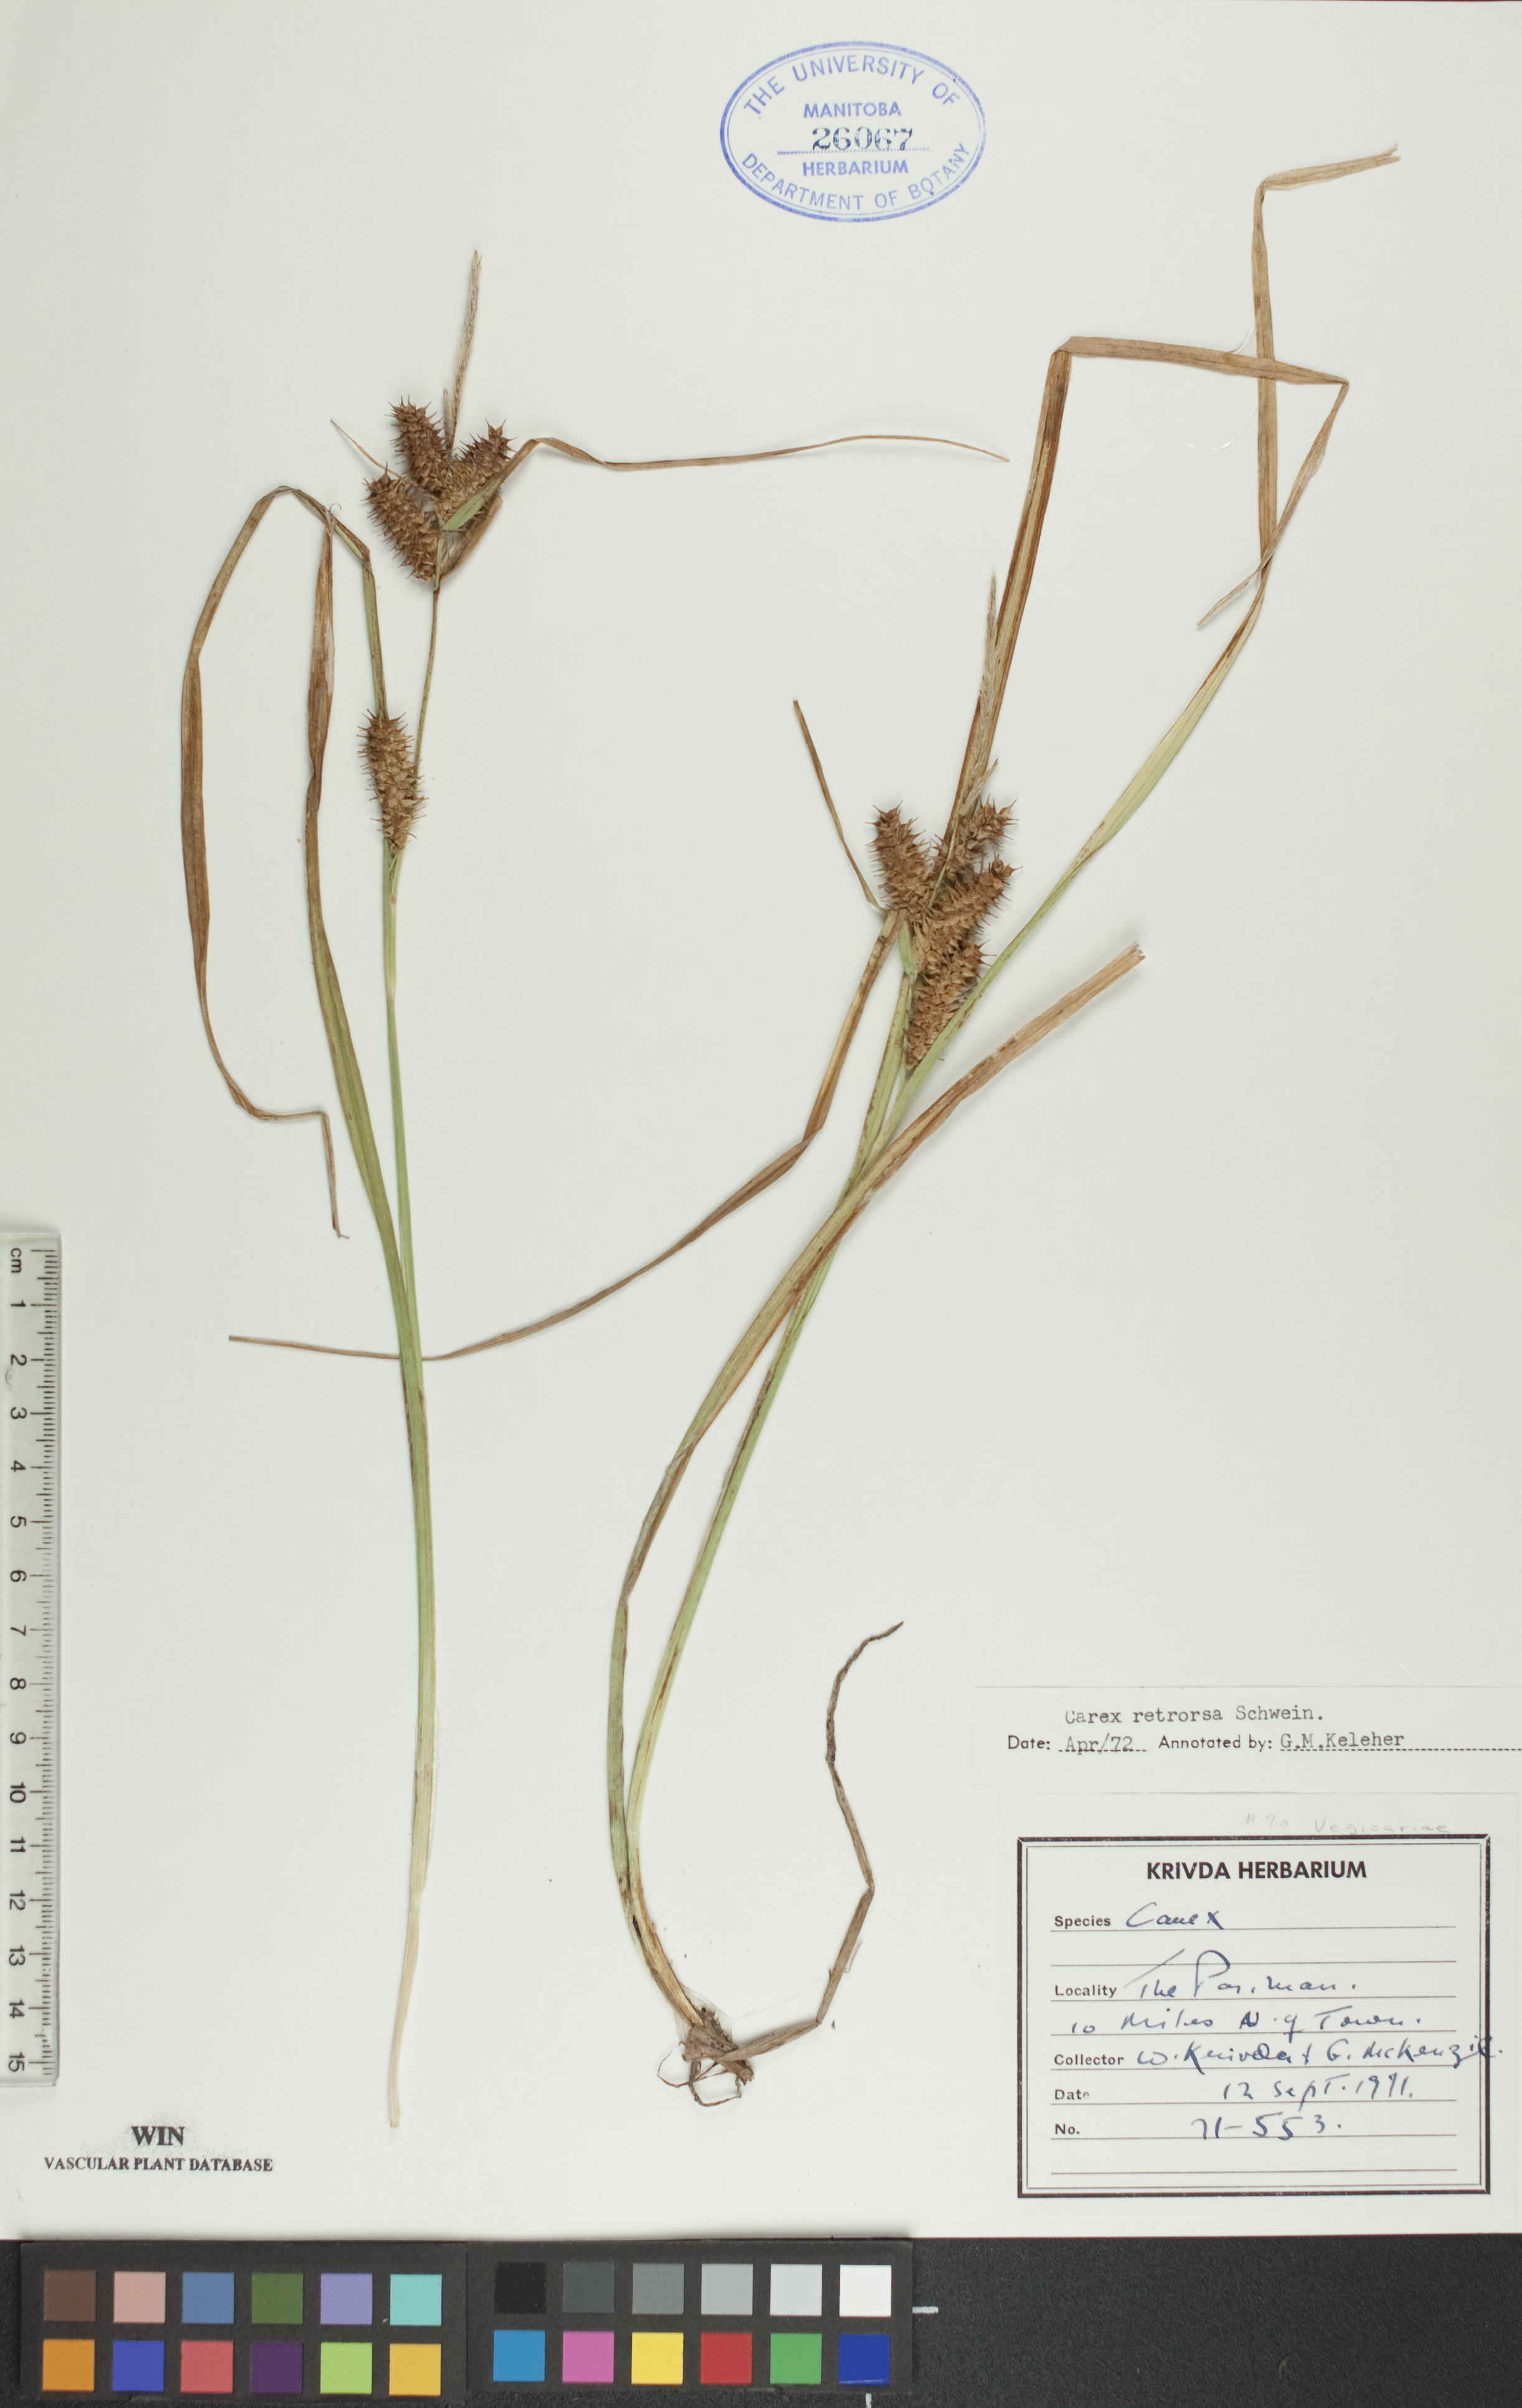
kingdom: Plantae
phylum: Tracheophyta
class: Liliopsida
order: Poales
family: Cyperaceae
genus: Carex
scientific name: Carex retrorsa
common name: Knot-sheath sedge
